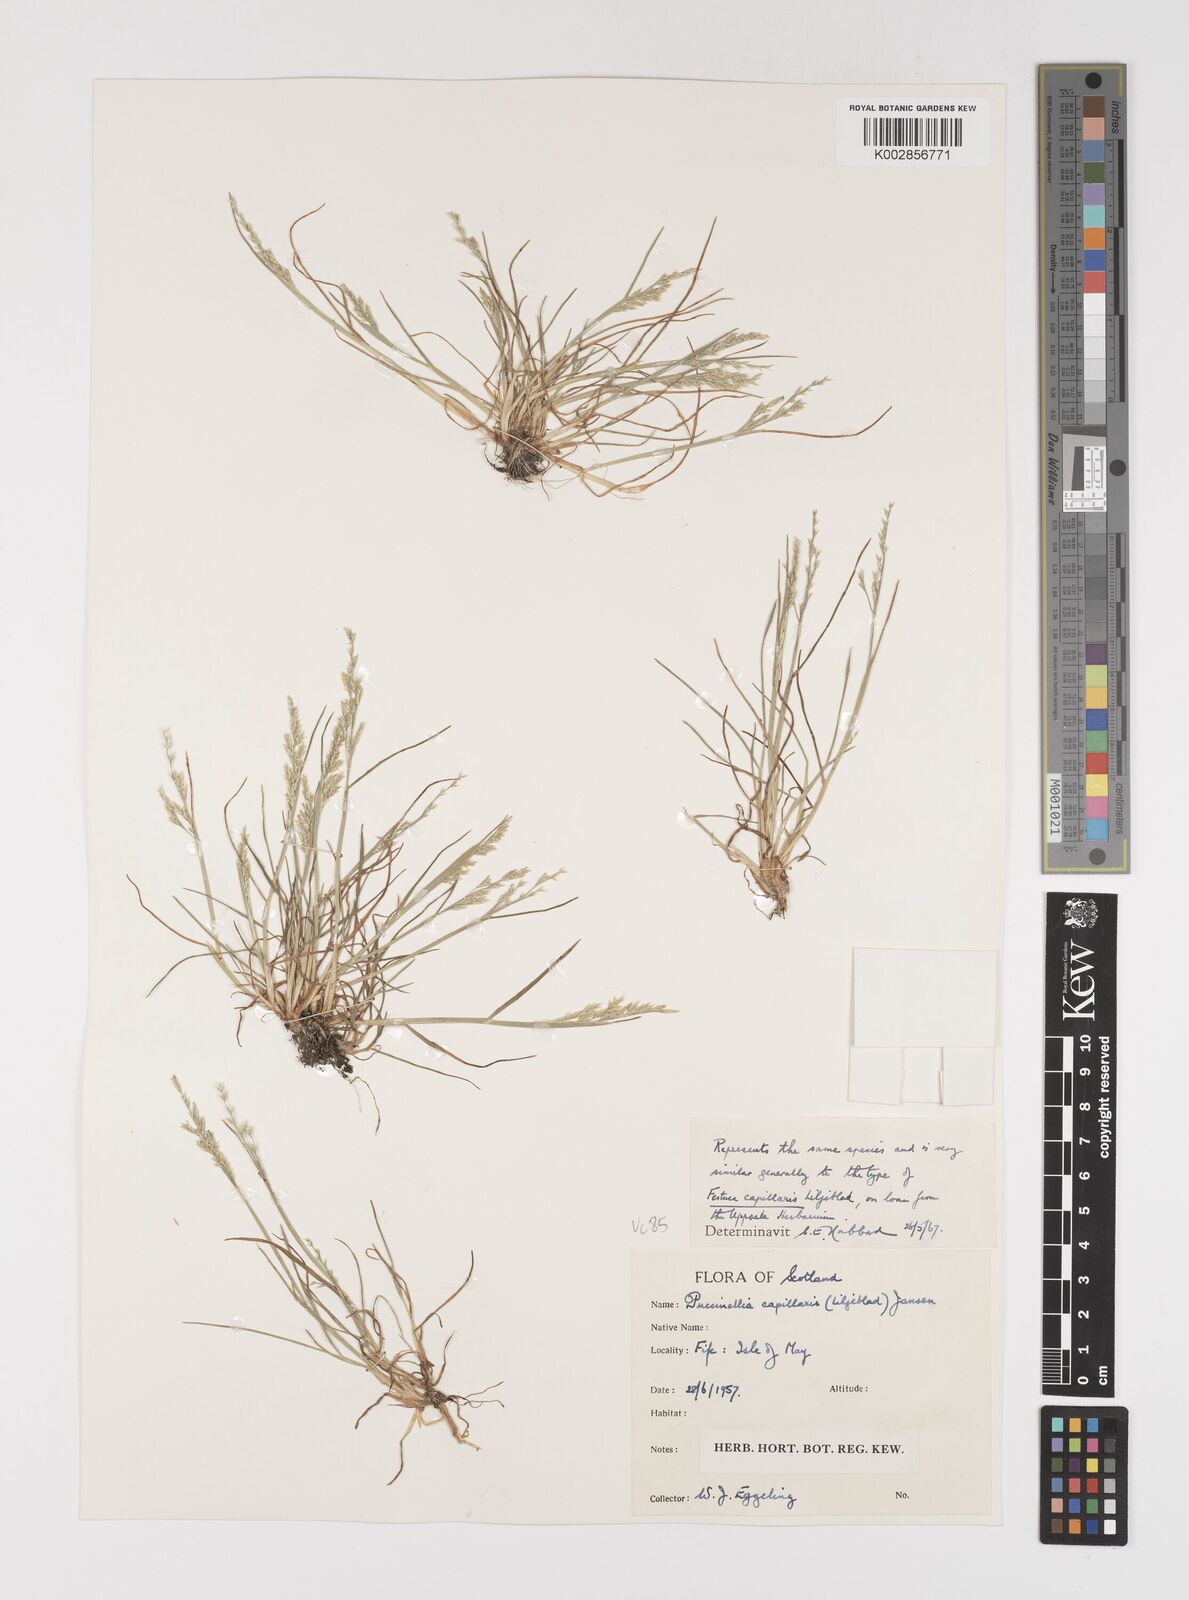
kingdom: Plantae
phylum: Tracheophyta
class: Liliopsida
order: Poales
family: Poaceae
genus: Puccinellia
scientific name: Puccinellia distans
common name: Weeping alkaligrass
